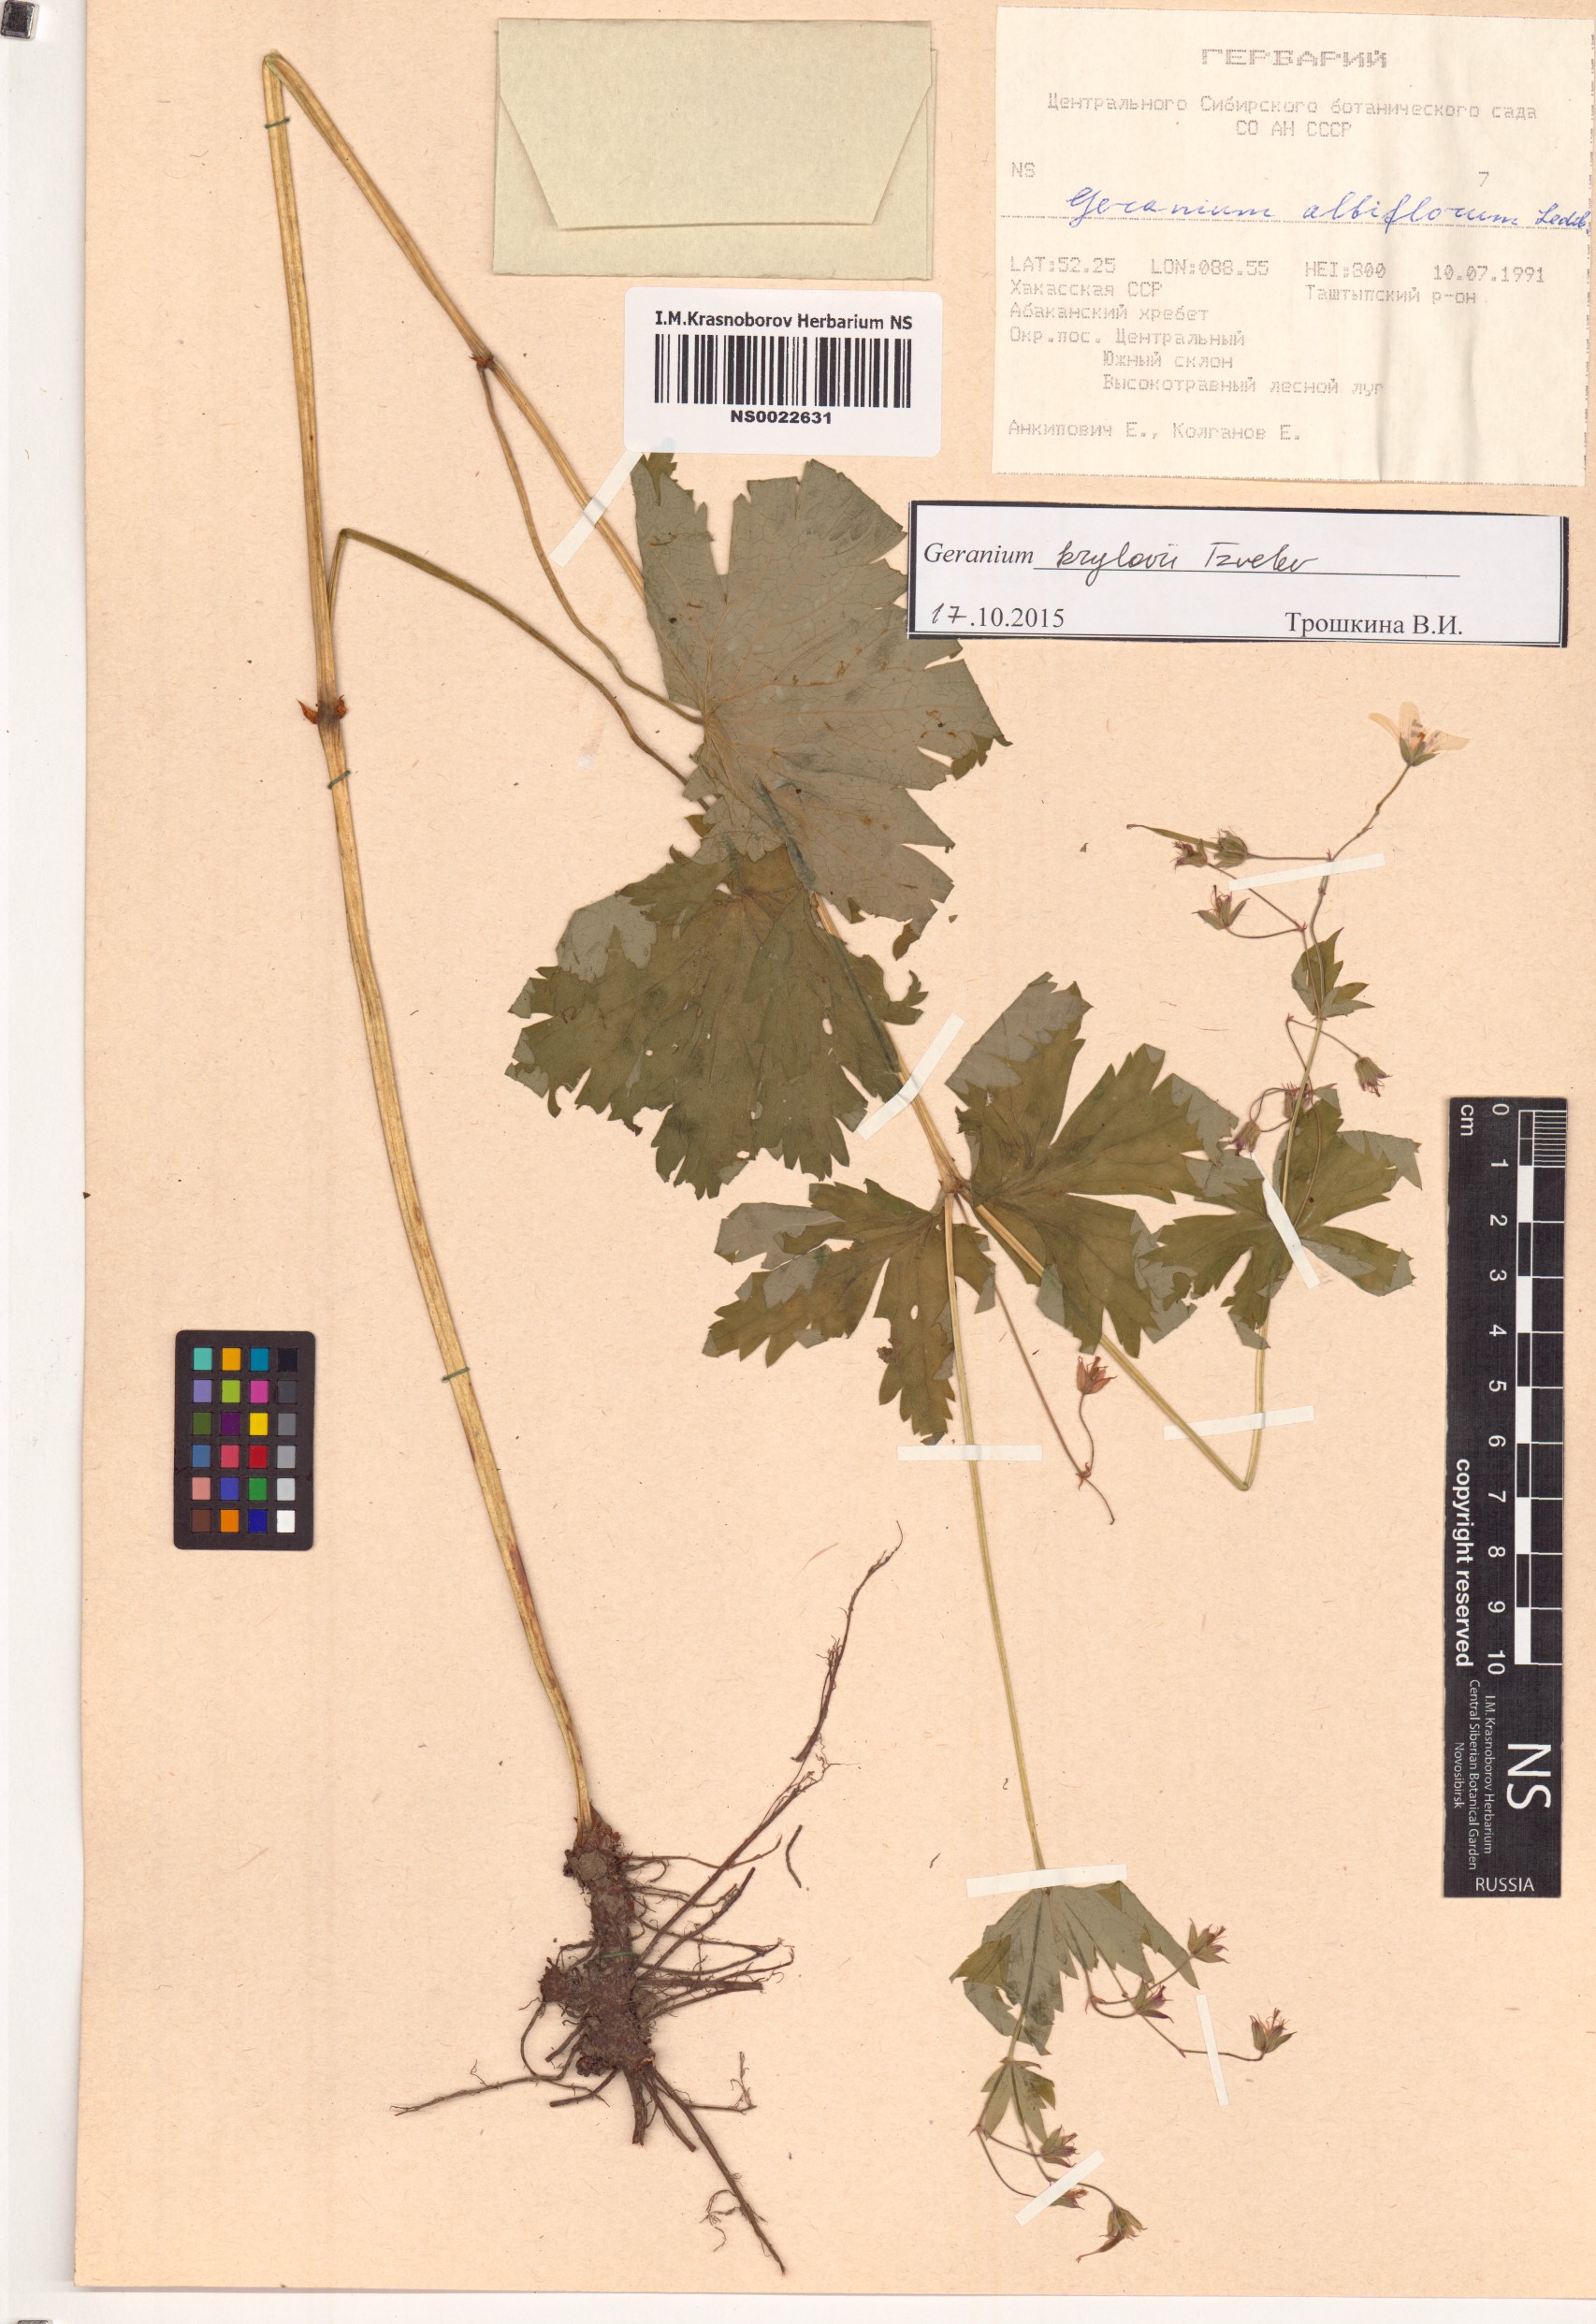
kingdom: Plantae
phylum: Tracheophyta
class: Magnoliopsida
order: Geraniales
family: Geraniaceae
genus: Geranium
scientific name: Geranium sylvaticum
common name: Wood crane's-bill
